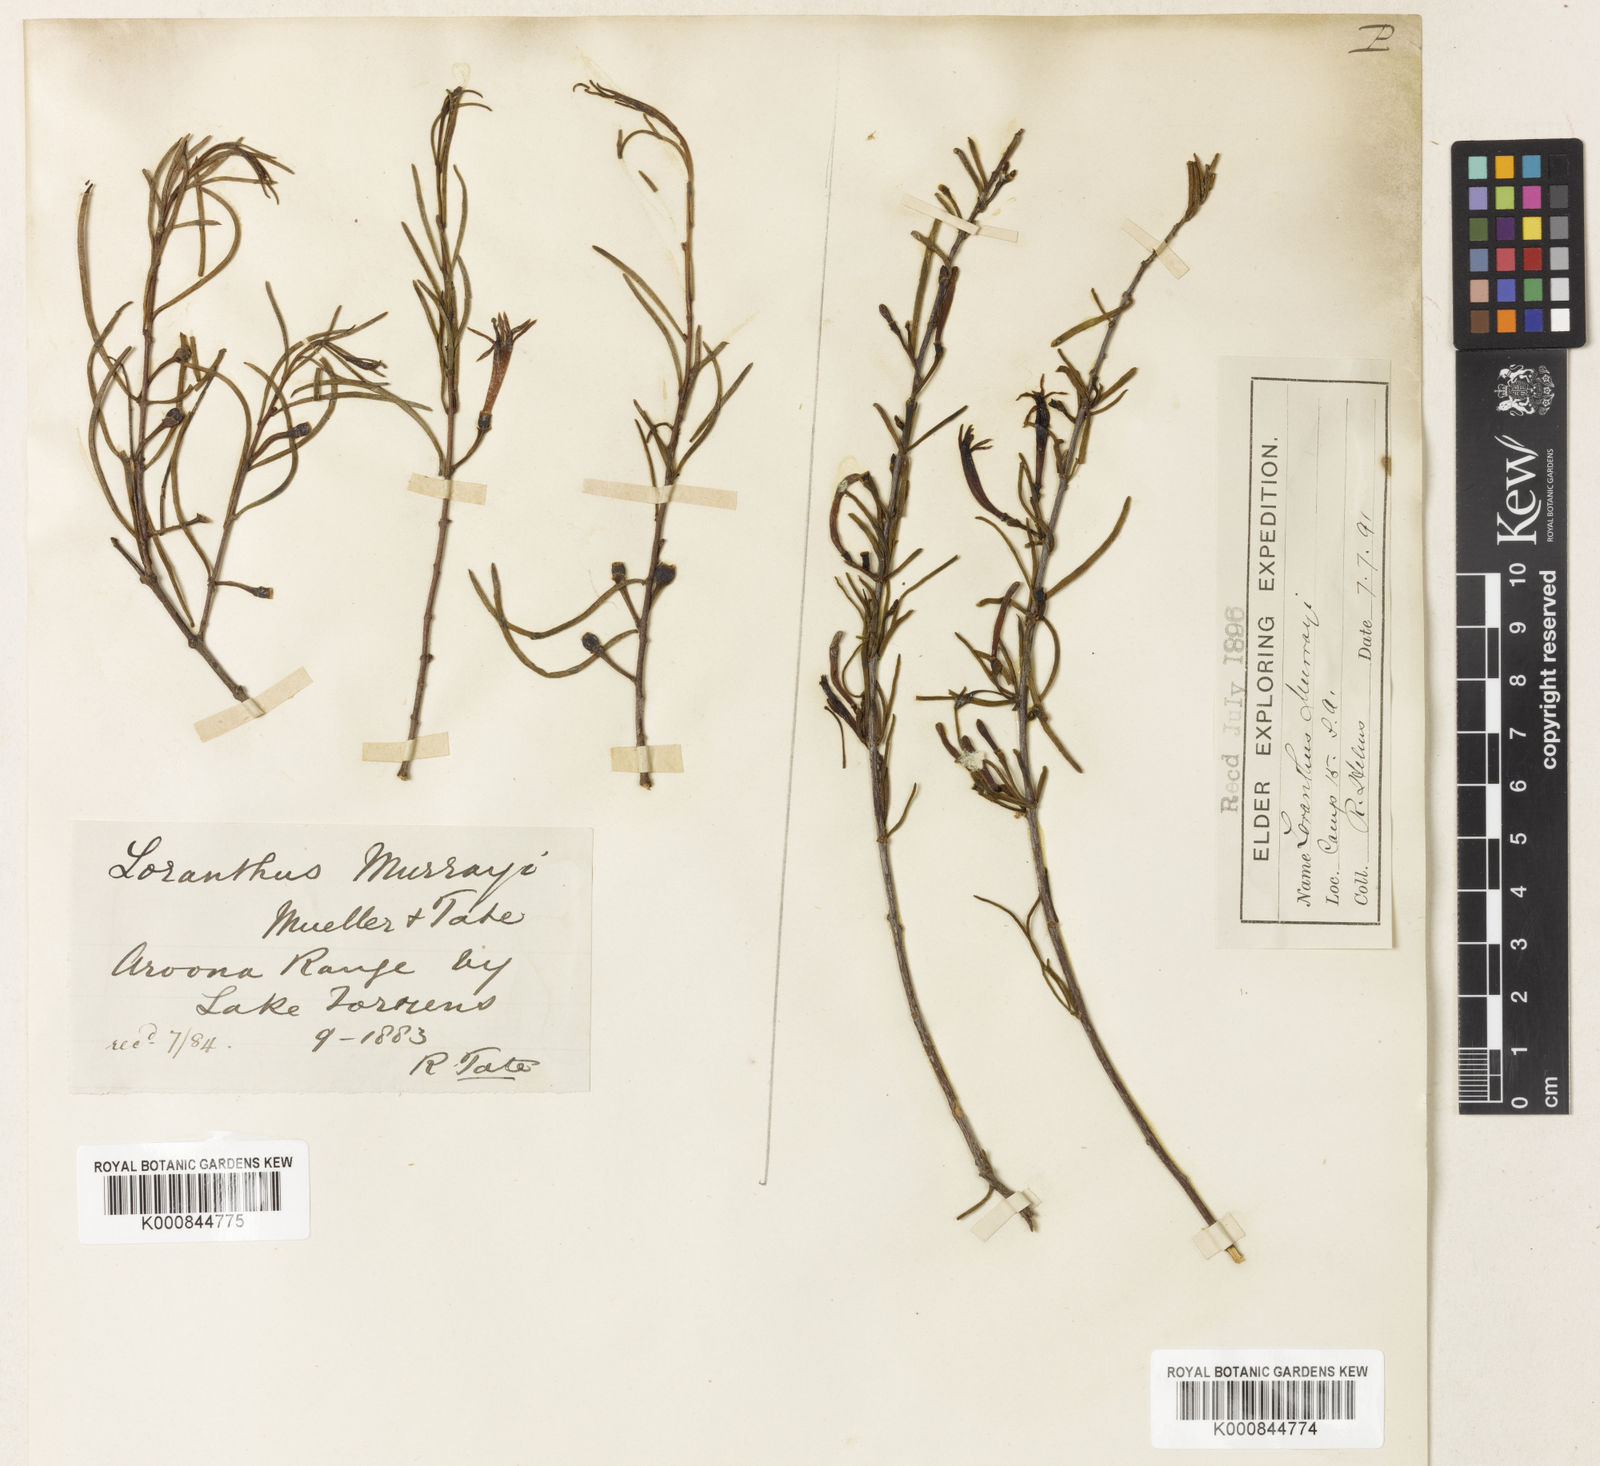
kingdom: Plantae
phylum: Tracheophyta
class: Magnoliopsida
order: Santalales
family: Loranthaceae
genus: Lysiana
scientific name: Lysiana murrayi
